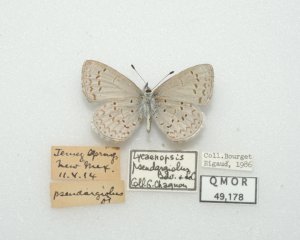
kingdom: Animalia
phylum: Arthropoda
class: Insecta
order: Lepidoptera
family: Lycaenidae
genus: Celastrina
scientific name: Celastrina ladon
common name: Spring Azure
